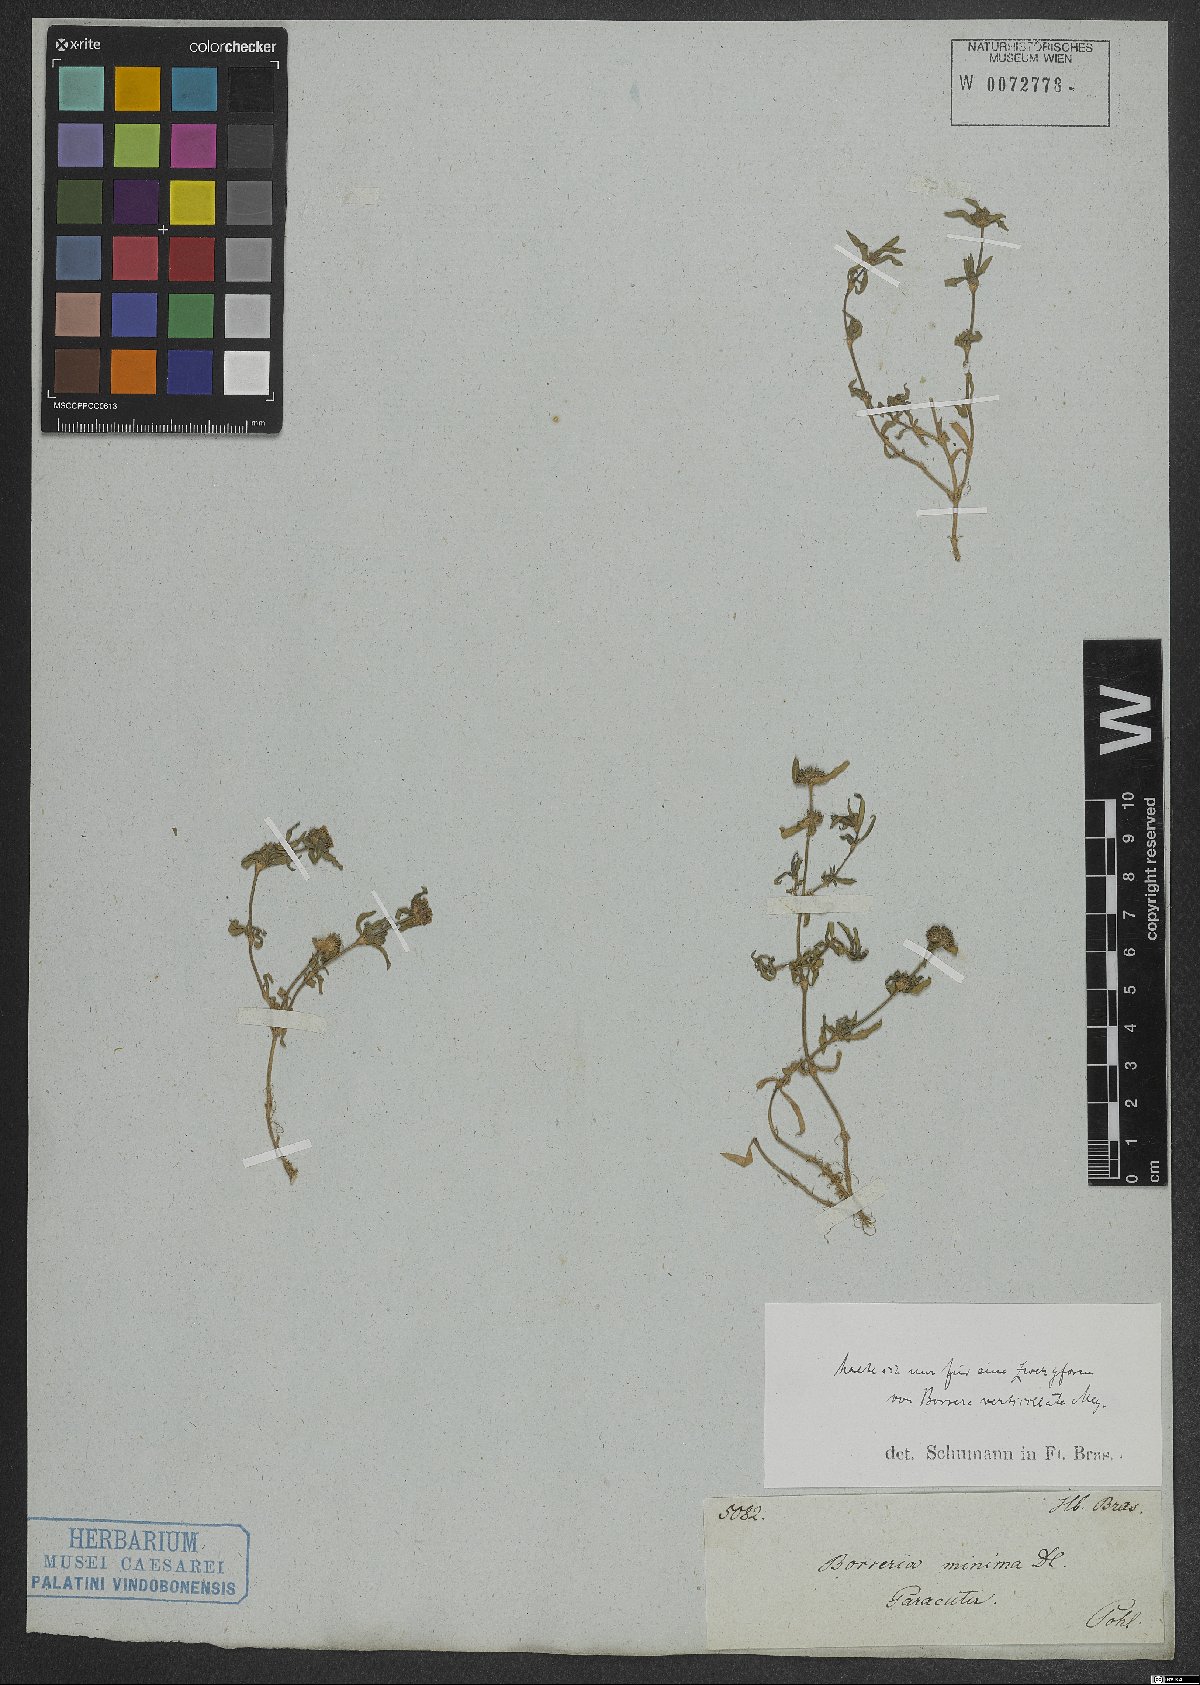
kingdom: Plantae
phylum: Tracheophyta
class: Magnoliopsida
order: Gentianales
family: Rubiaceae
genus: Spermacoce
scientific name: Spermacoce verticillata
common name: Shrubby false buttonweed
